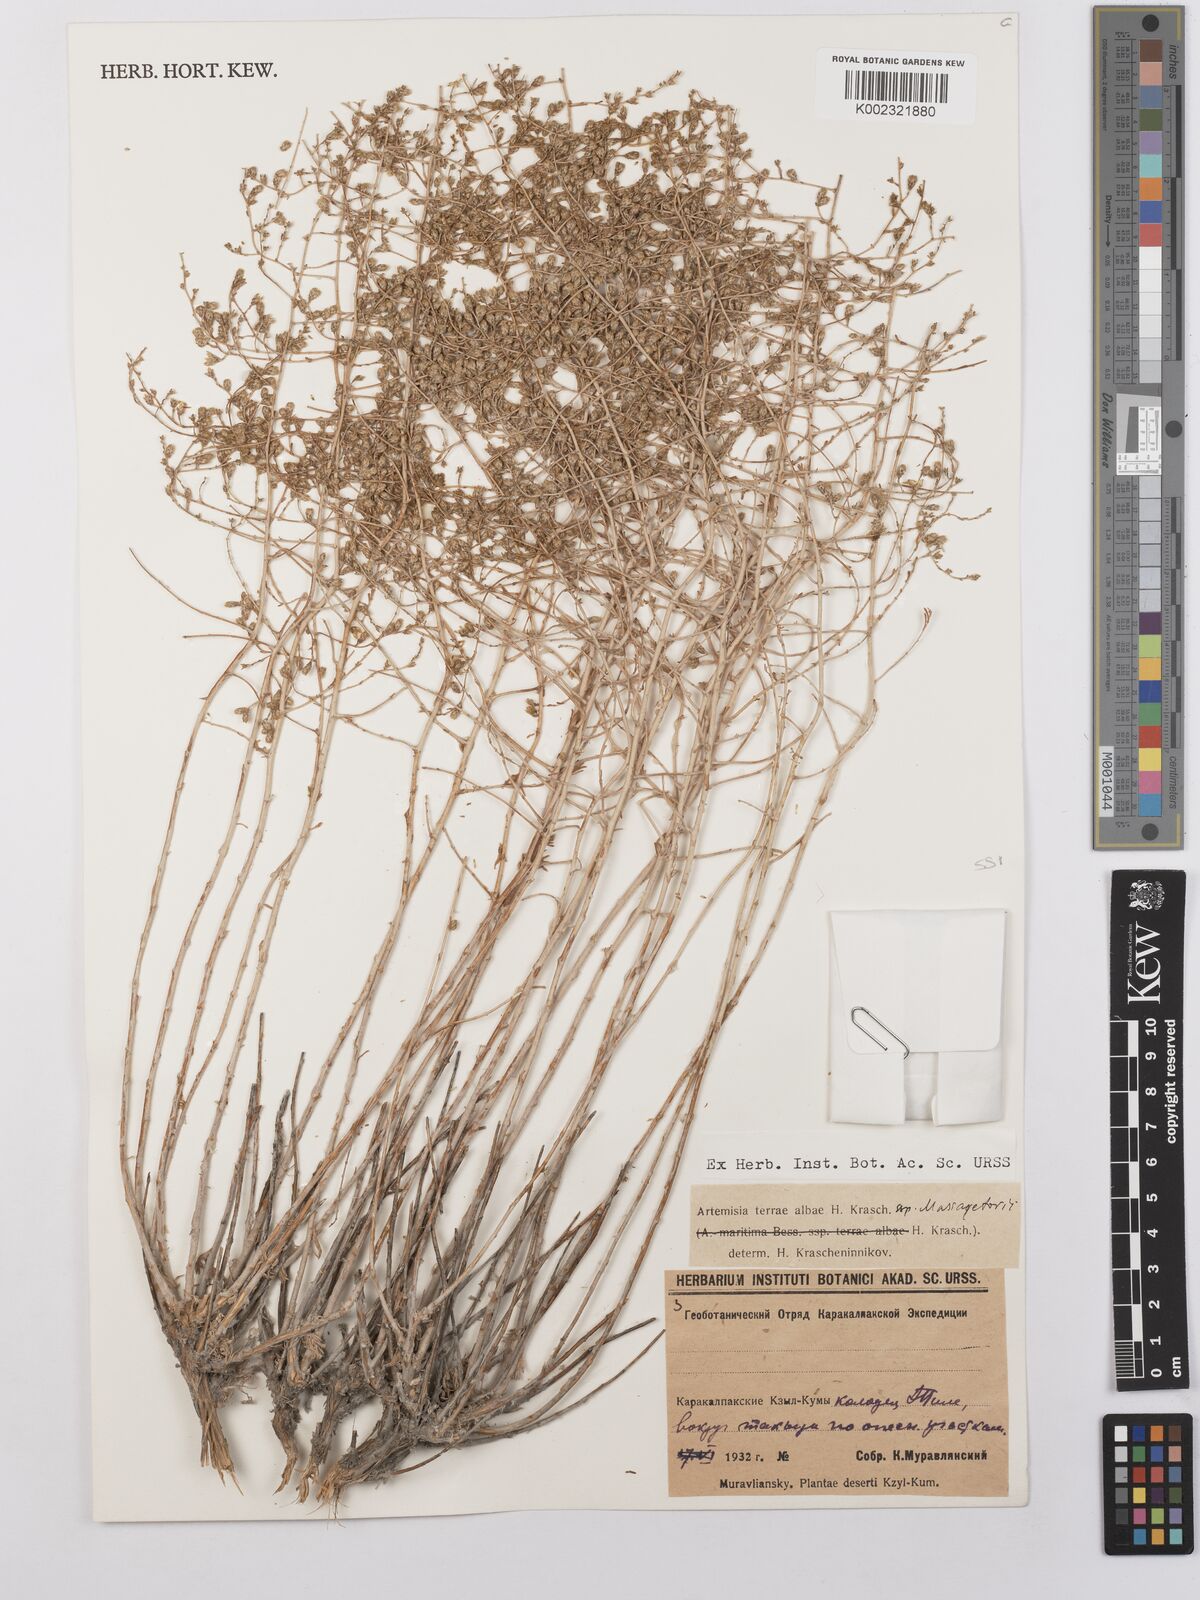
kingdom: Plantae
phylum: Tracheophyta
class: Magnoliopsida
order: Asterales
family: Asteraceae
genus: Artemisia
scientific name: Artemisia terrae-albae
